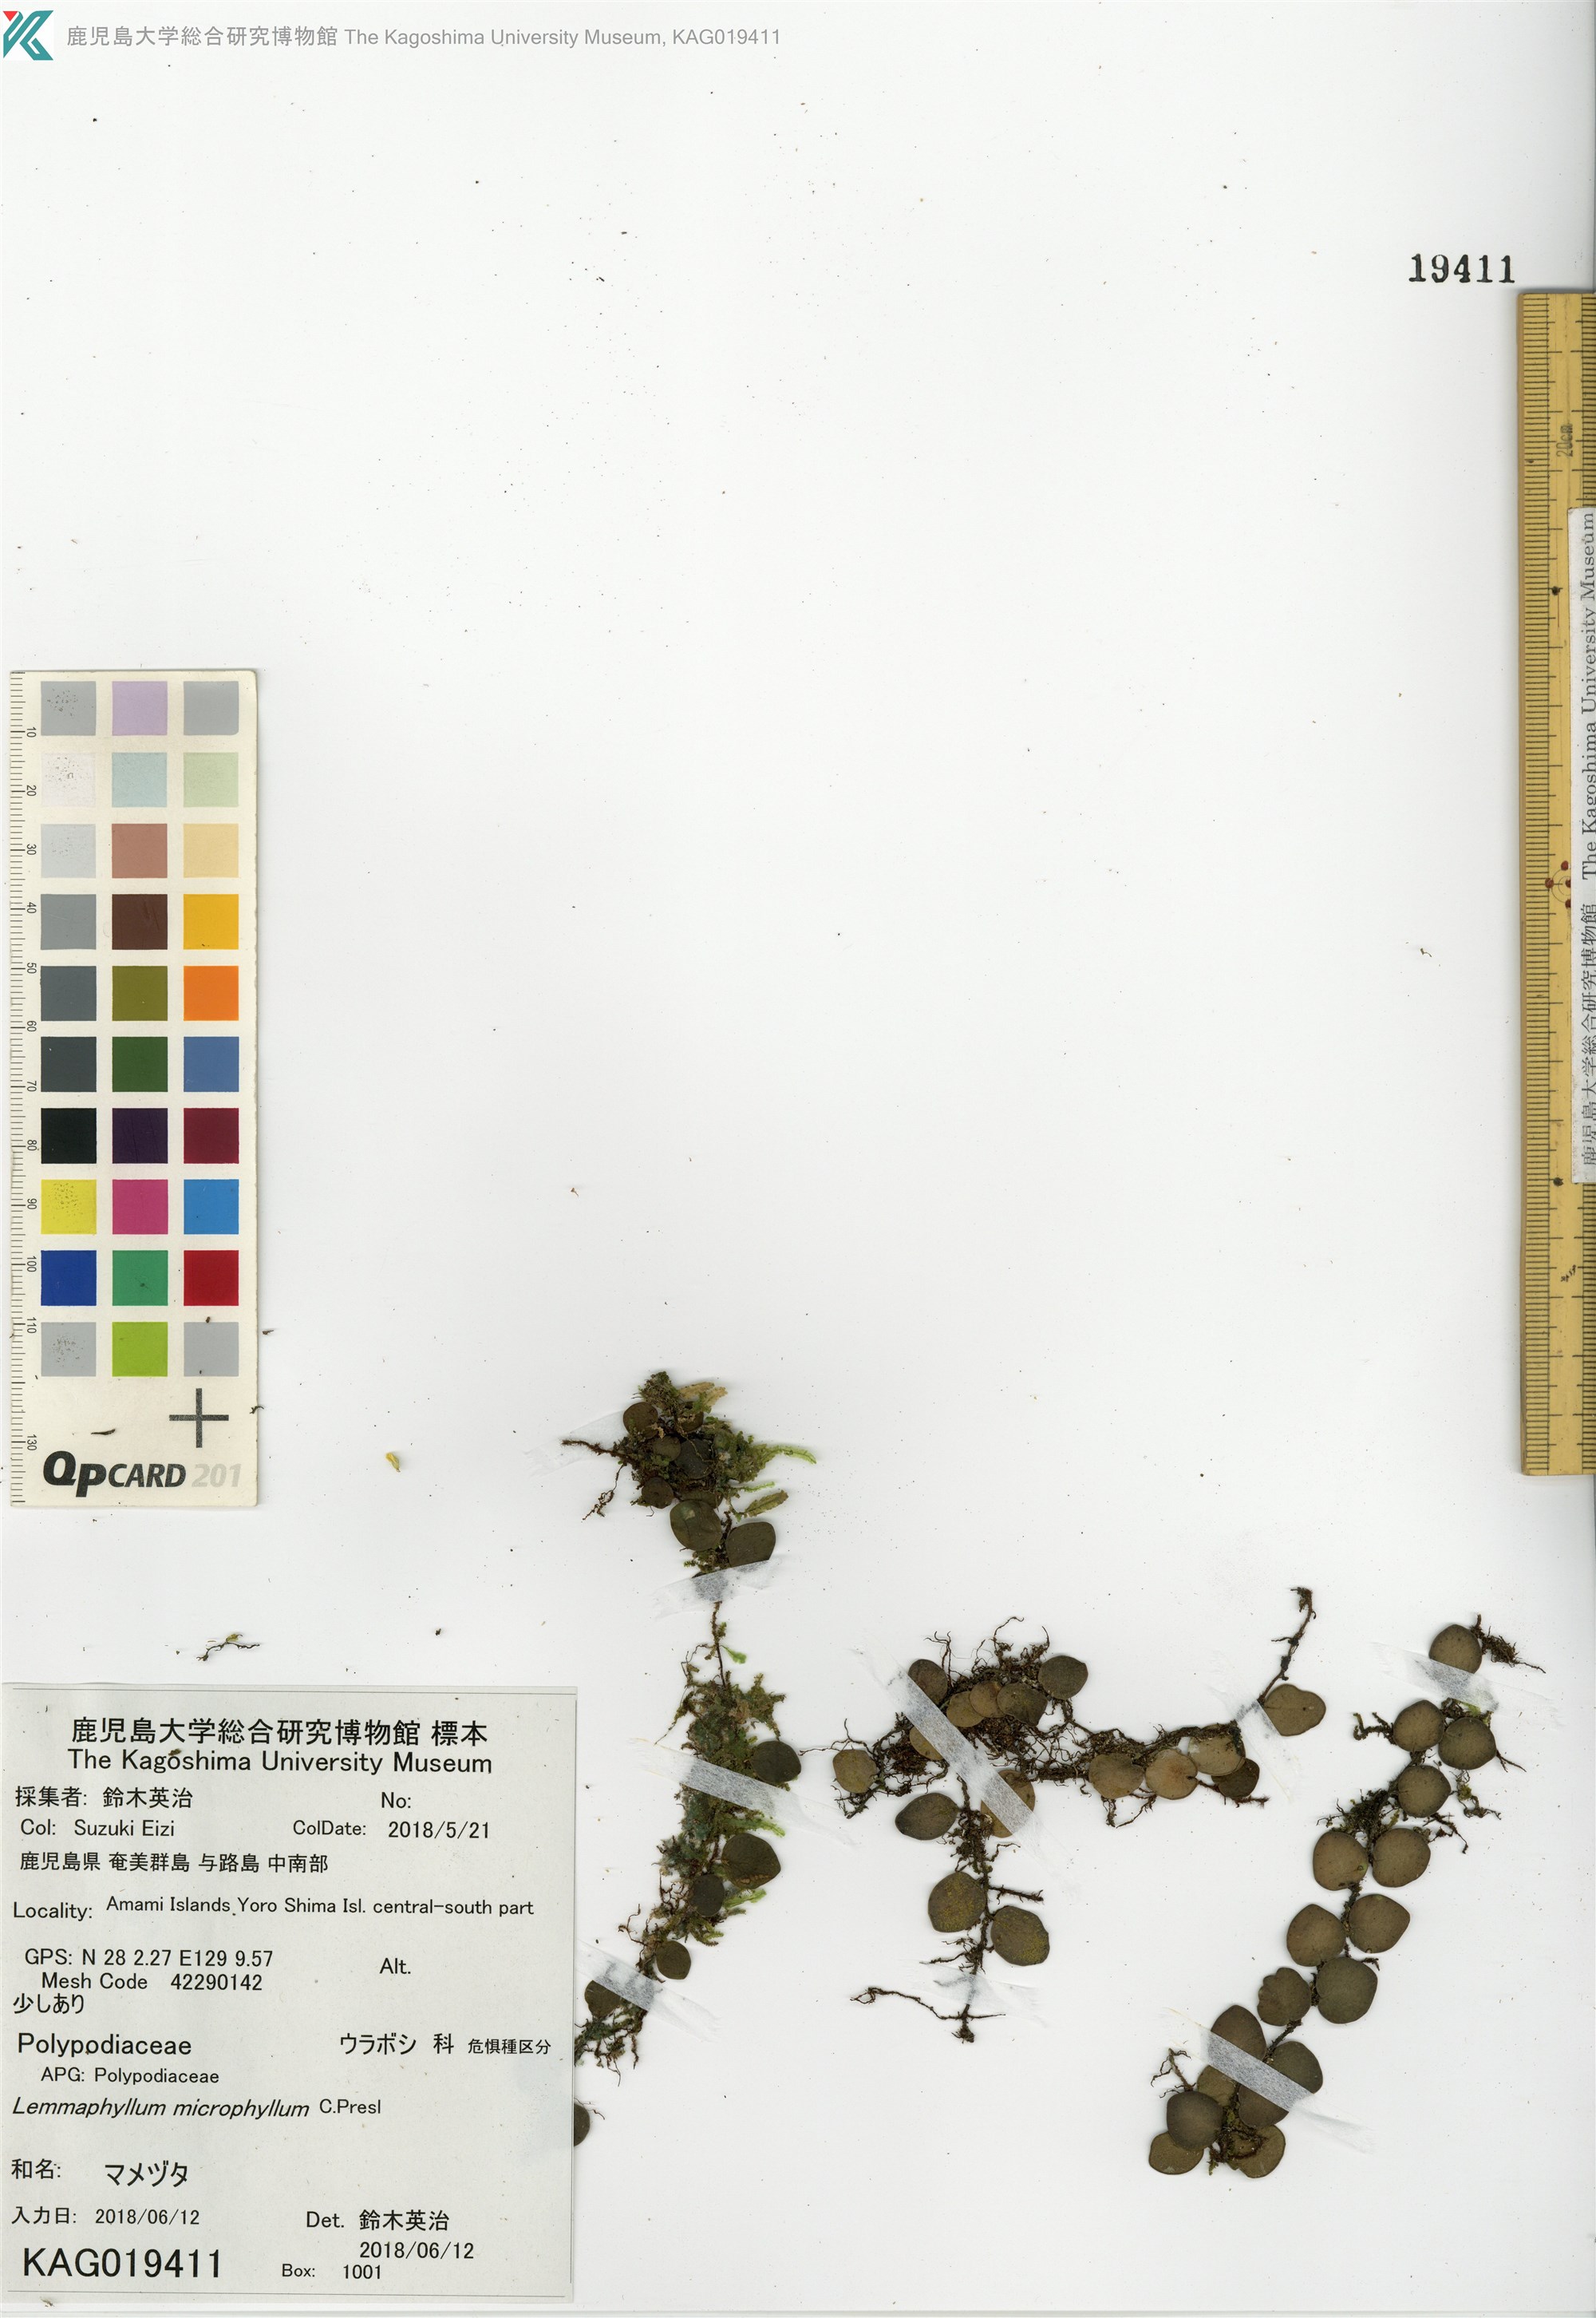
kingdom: Plantae
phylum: Tracheophyta
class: Polypodiopsida
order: Polypodiales
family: Polypodiaceae
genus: Lepisorus
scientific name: Lepisorus microphyllus
